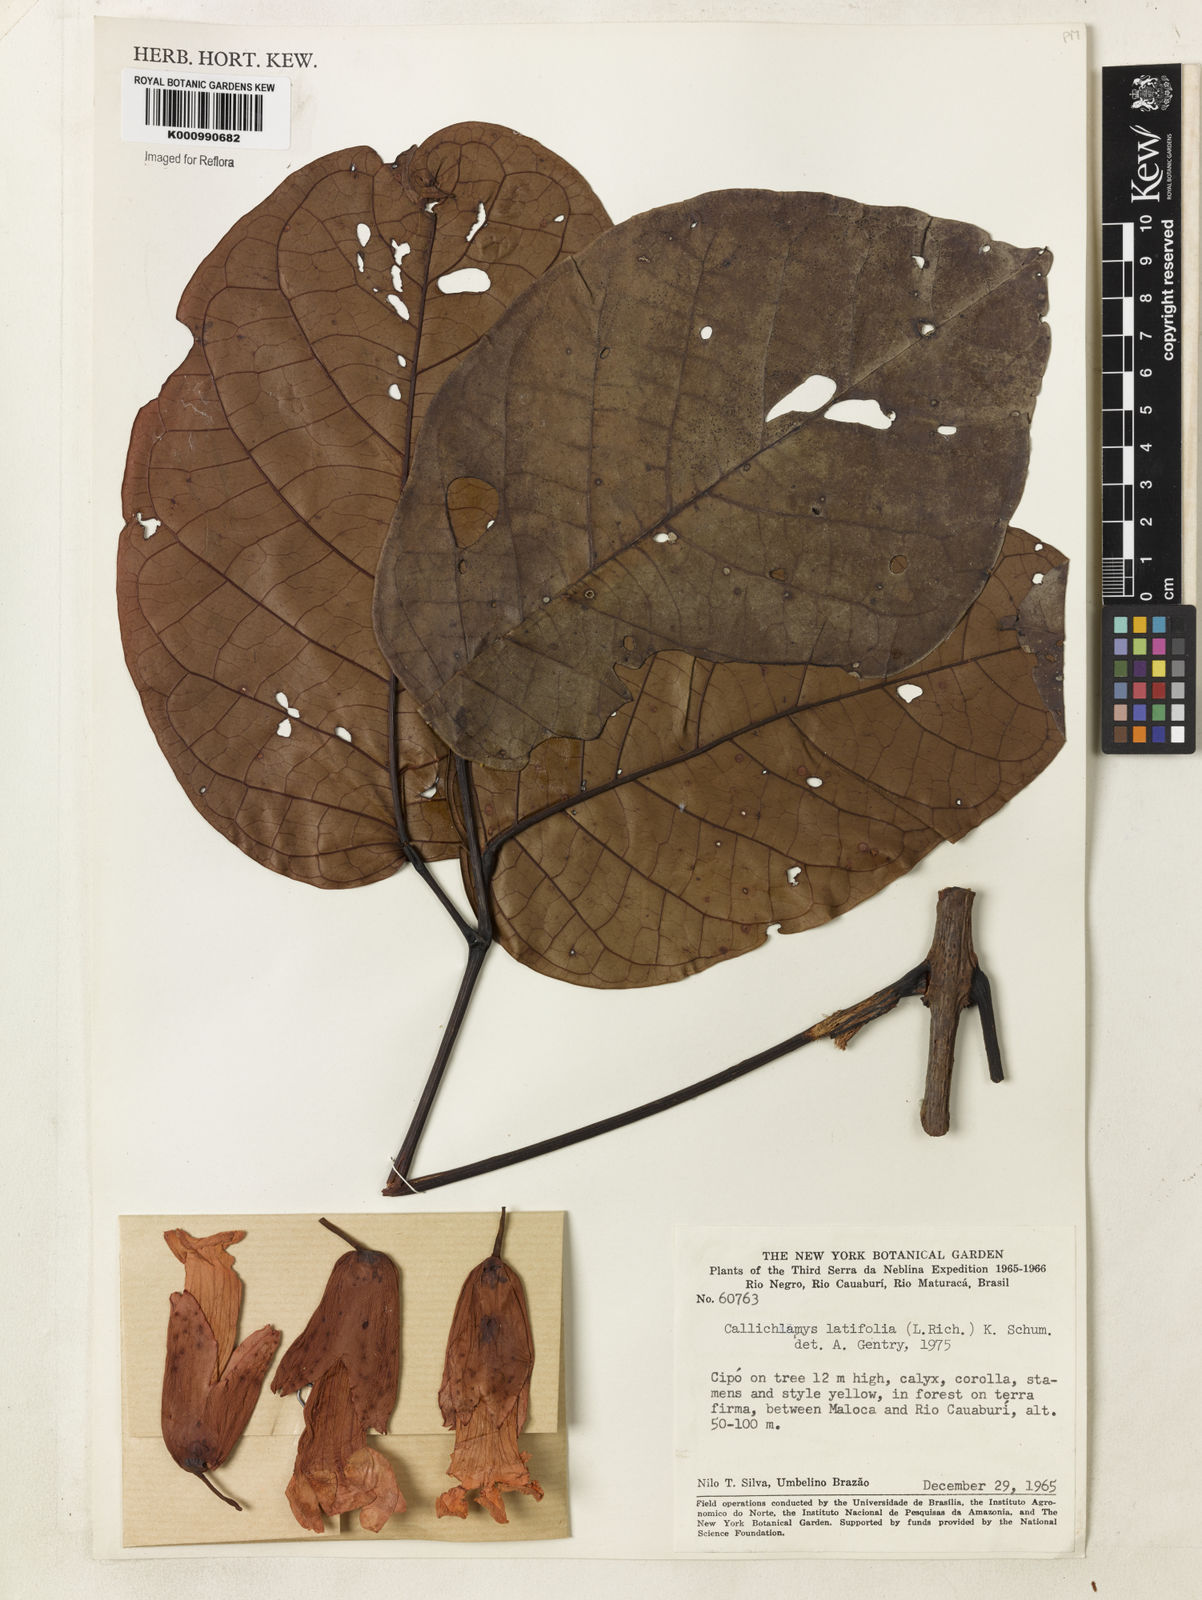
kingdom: Plantae
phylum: Tracheophyta
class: Magnoliopsida
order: Lamiales
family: Bignoniaceae
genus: Callichlamys
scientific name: Callichlamys latifolia
